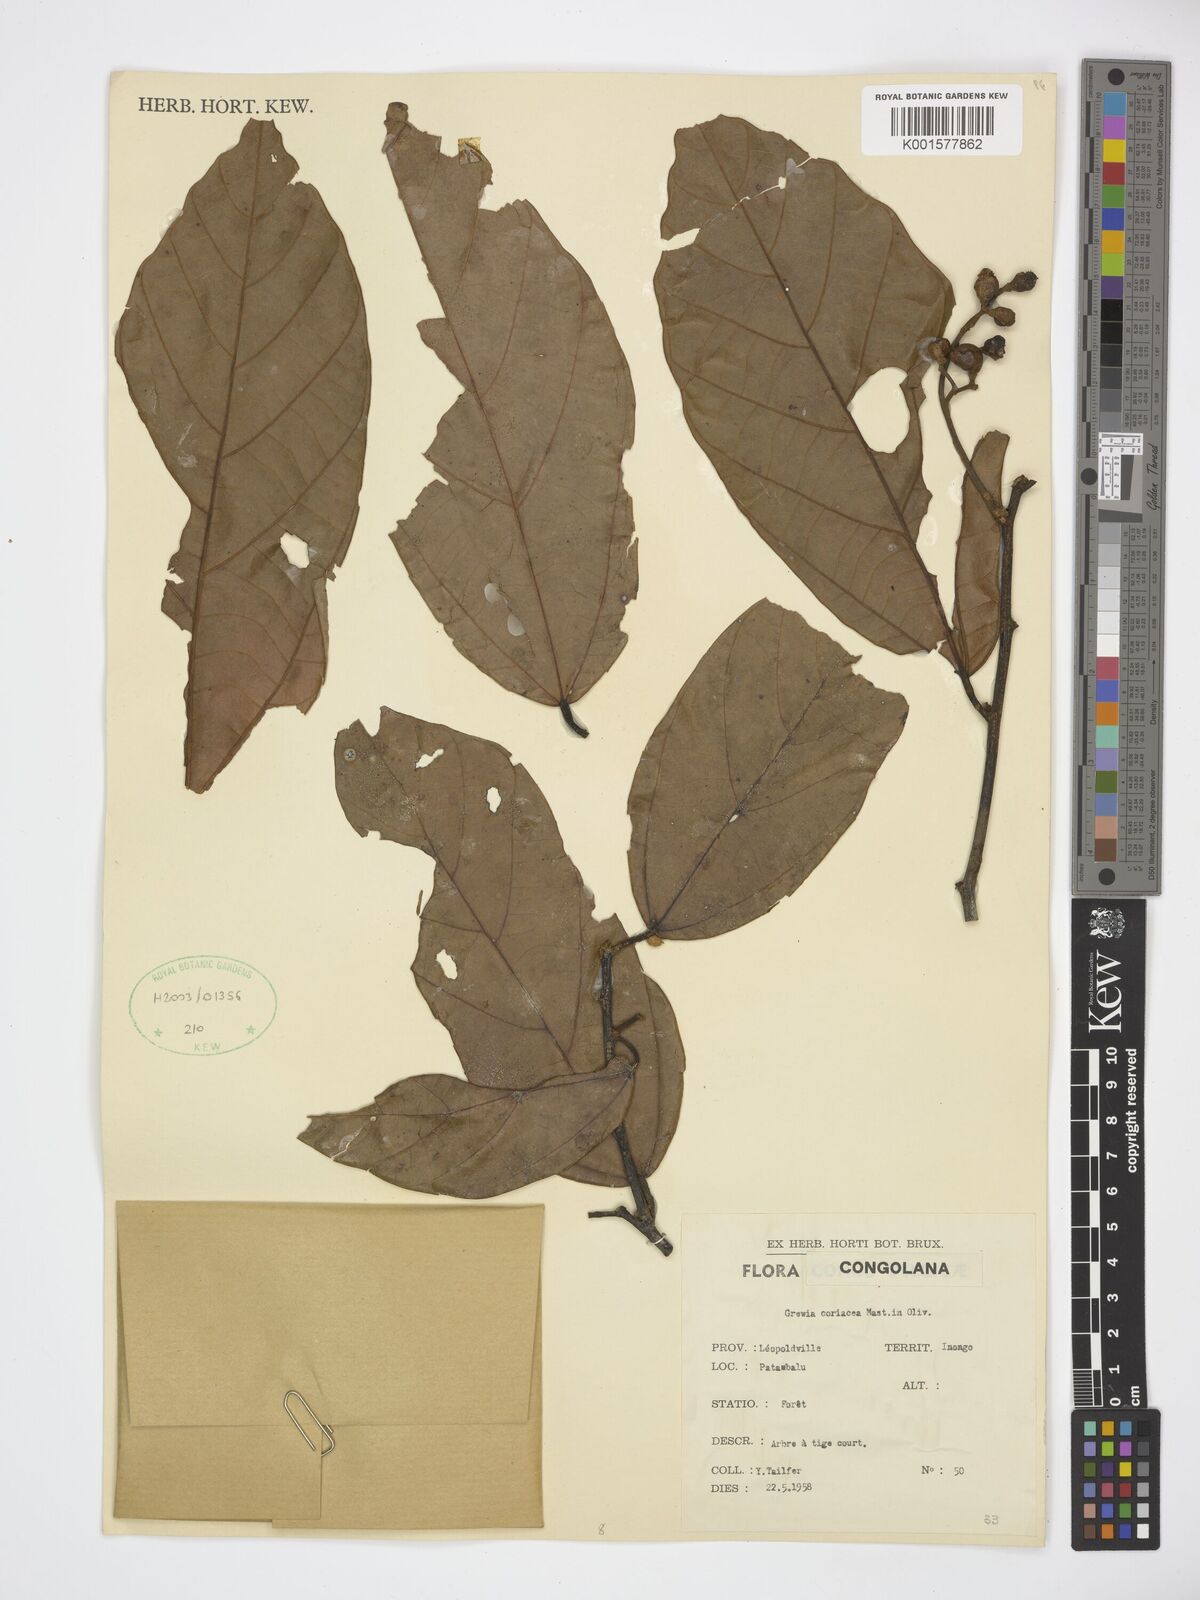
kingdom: Plantae
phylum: Tracheophyta
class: Magnoliopsida
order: Malvales
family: Malvaceae
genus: Microcos
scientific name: Microcos coriacea
